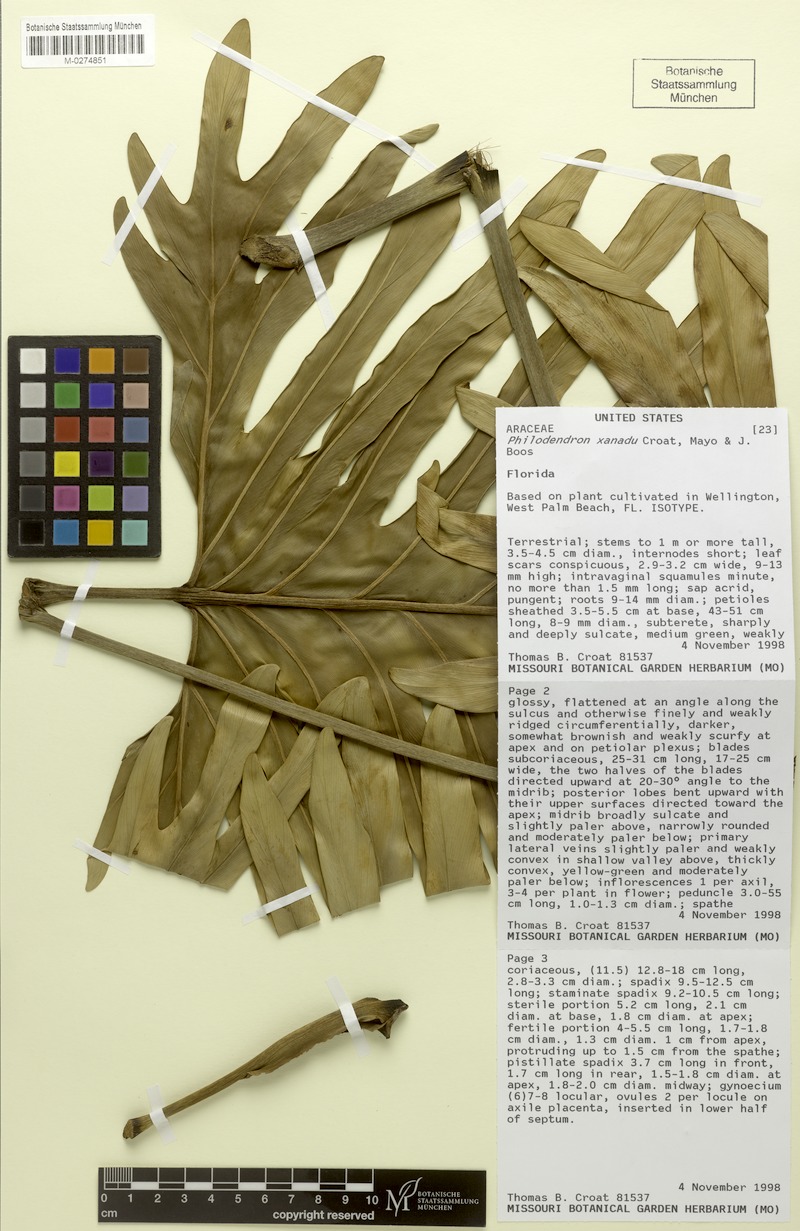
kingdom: Plantae
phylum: Tracheophyta
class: Liliopsida
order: Alismatales
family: Araceae
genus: Thaumatophyllum
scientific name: Thaumatophyllum xanadu
